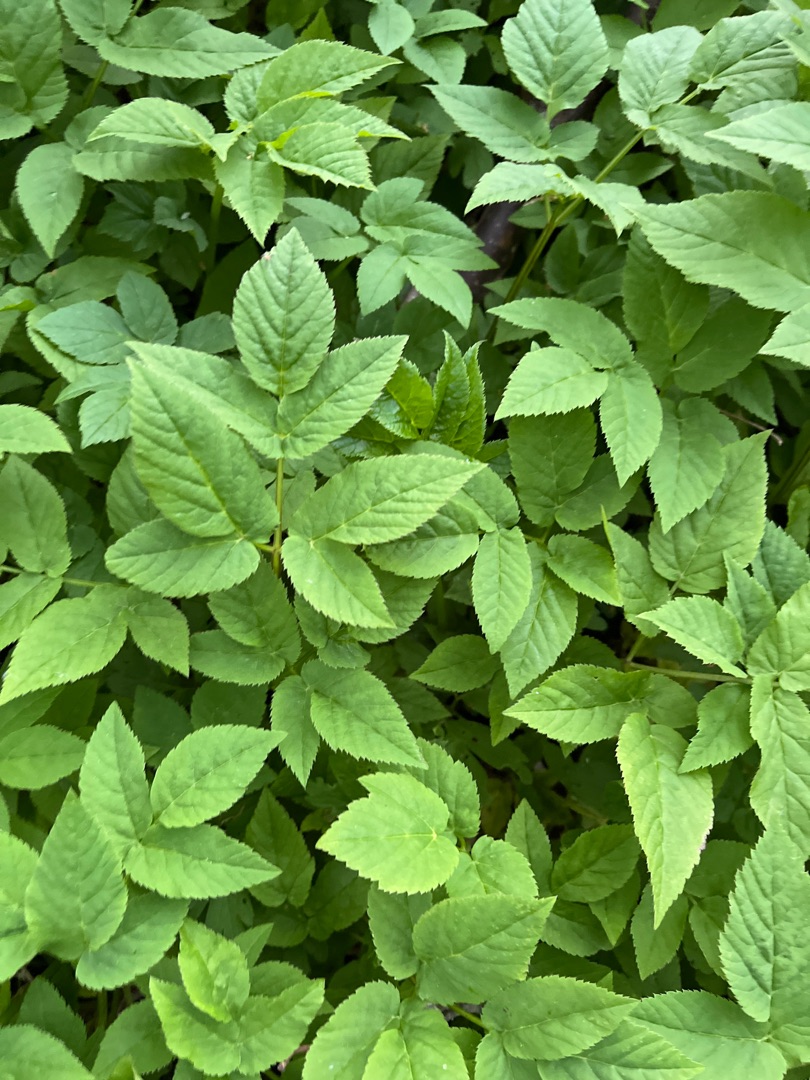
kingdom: Plantae
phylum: Tracheophyta
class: Magnoliopsida
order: Apiales
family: Apiaceae
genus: Aegopodium
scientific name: Aegopodium podagraria
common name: Skvalderkål
